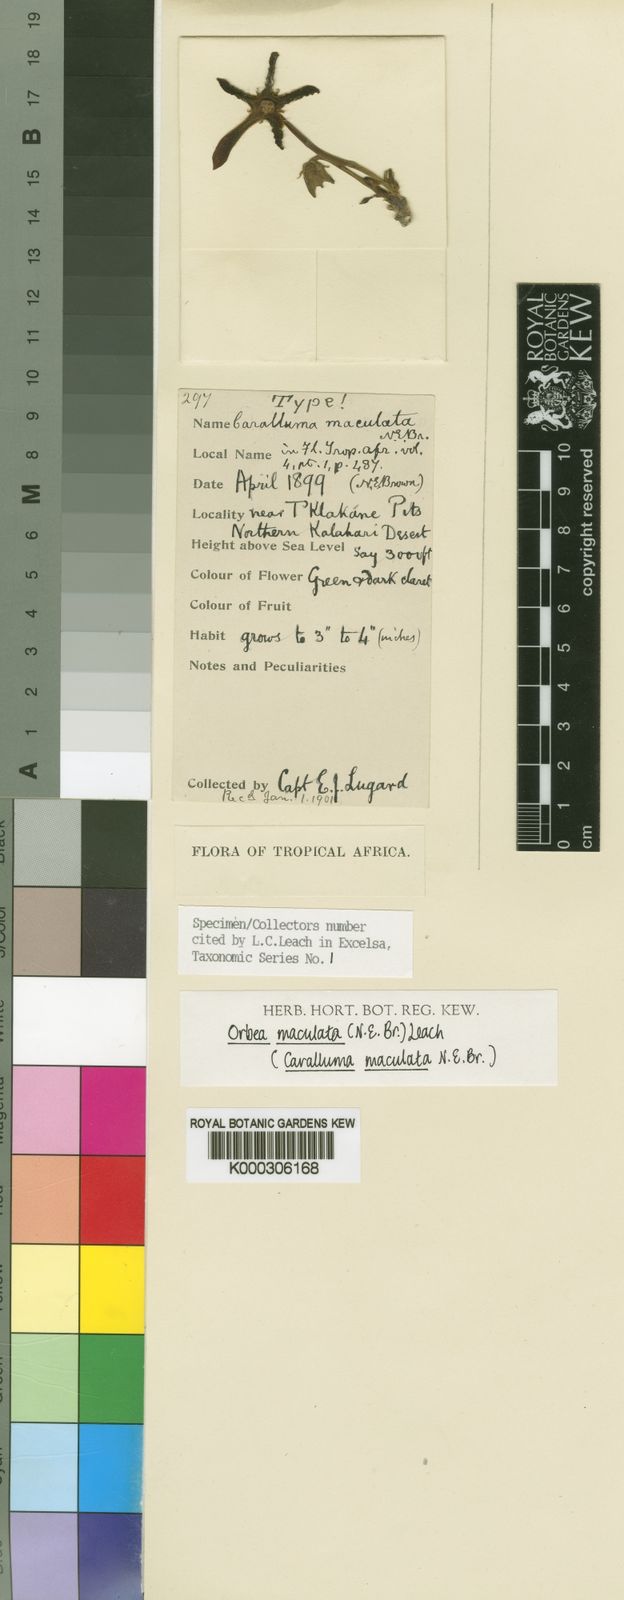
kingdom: Plantae
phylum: Tracheophyta
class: Magnoliopsida
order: Gentianales
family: Apocynaceae
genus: Ceropegia
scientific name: Ceropegia rangeana
